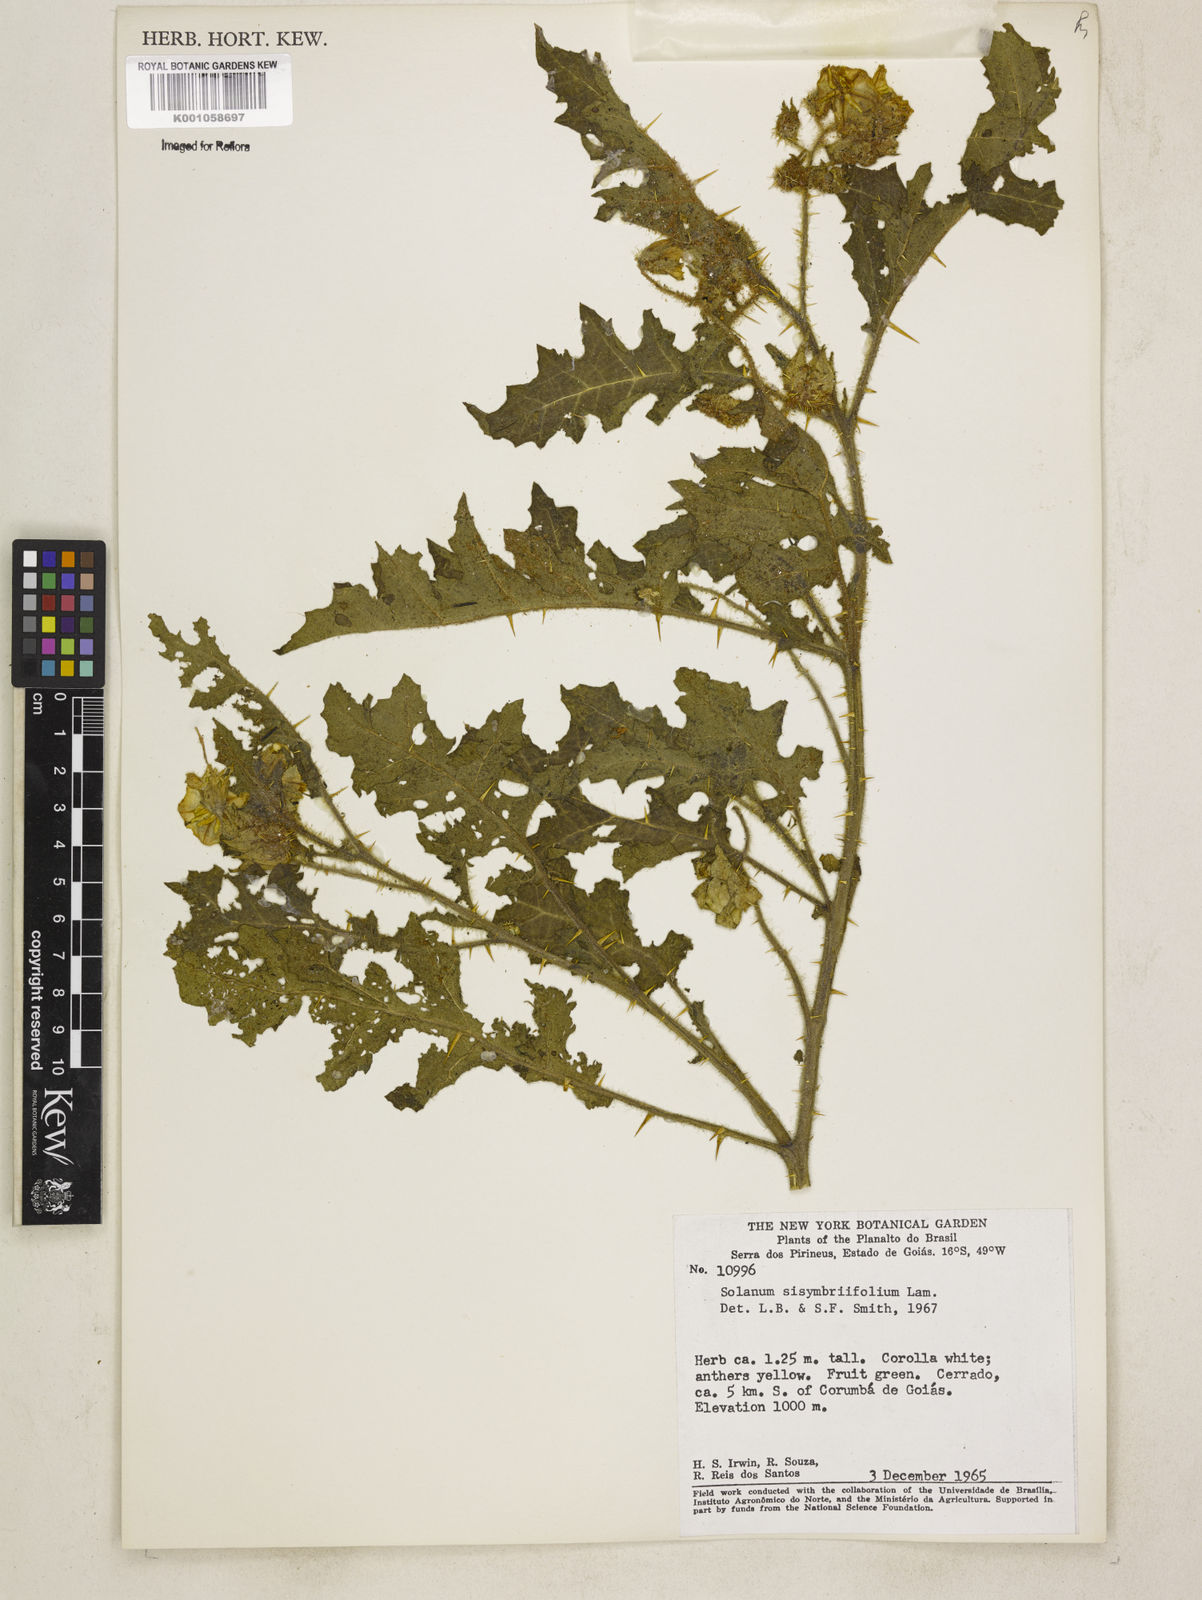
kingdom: Plantae
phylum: Tracheophyta
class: Magnoliopsida
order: Solanales
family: Solanaceae
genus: Solanum
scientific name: Solanum sisymbriifolium
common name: Red buffalo-bur
